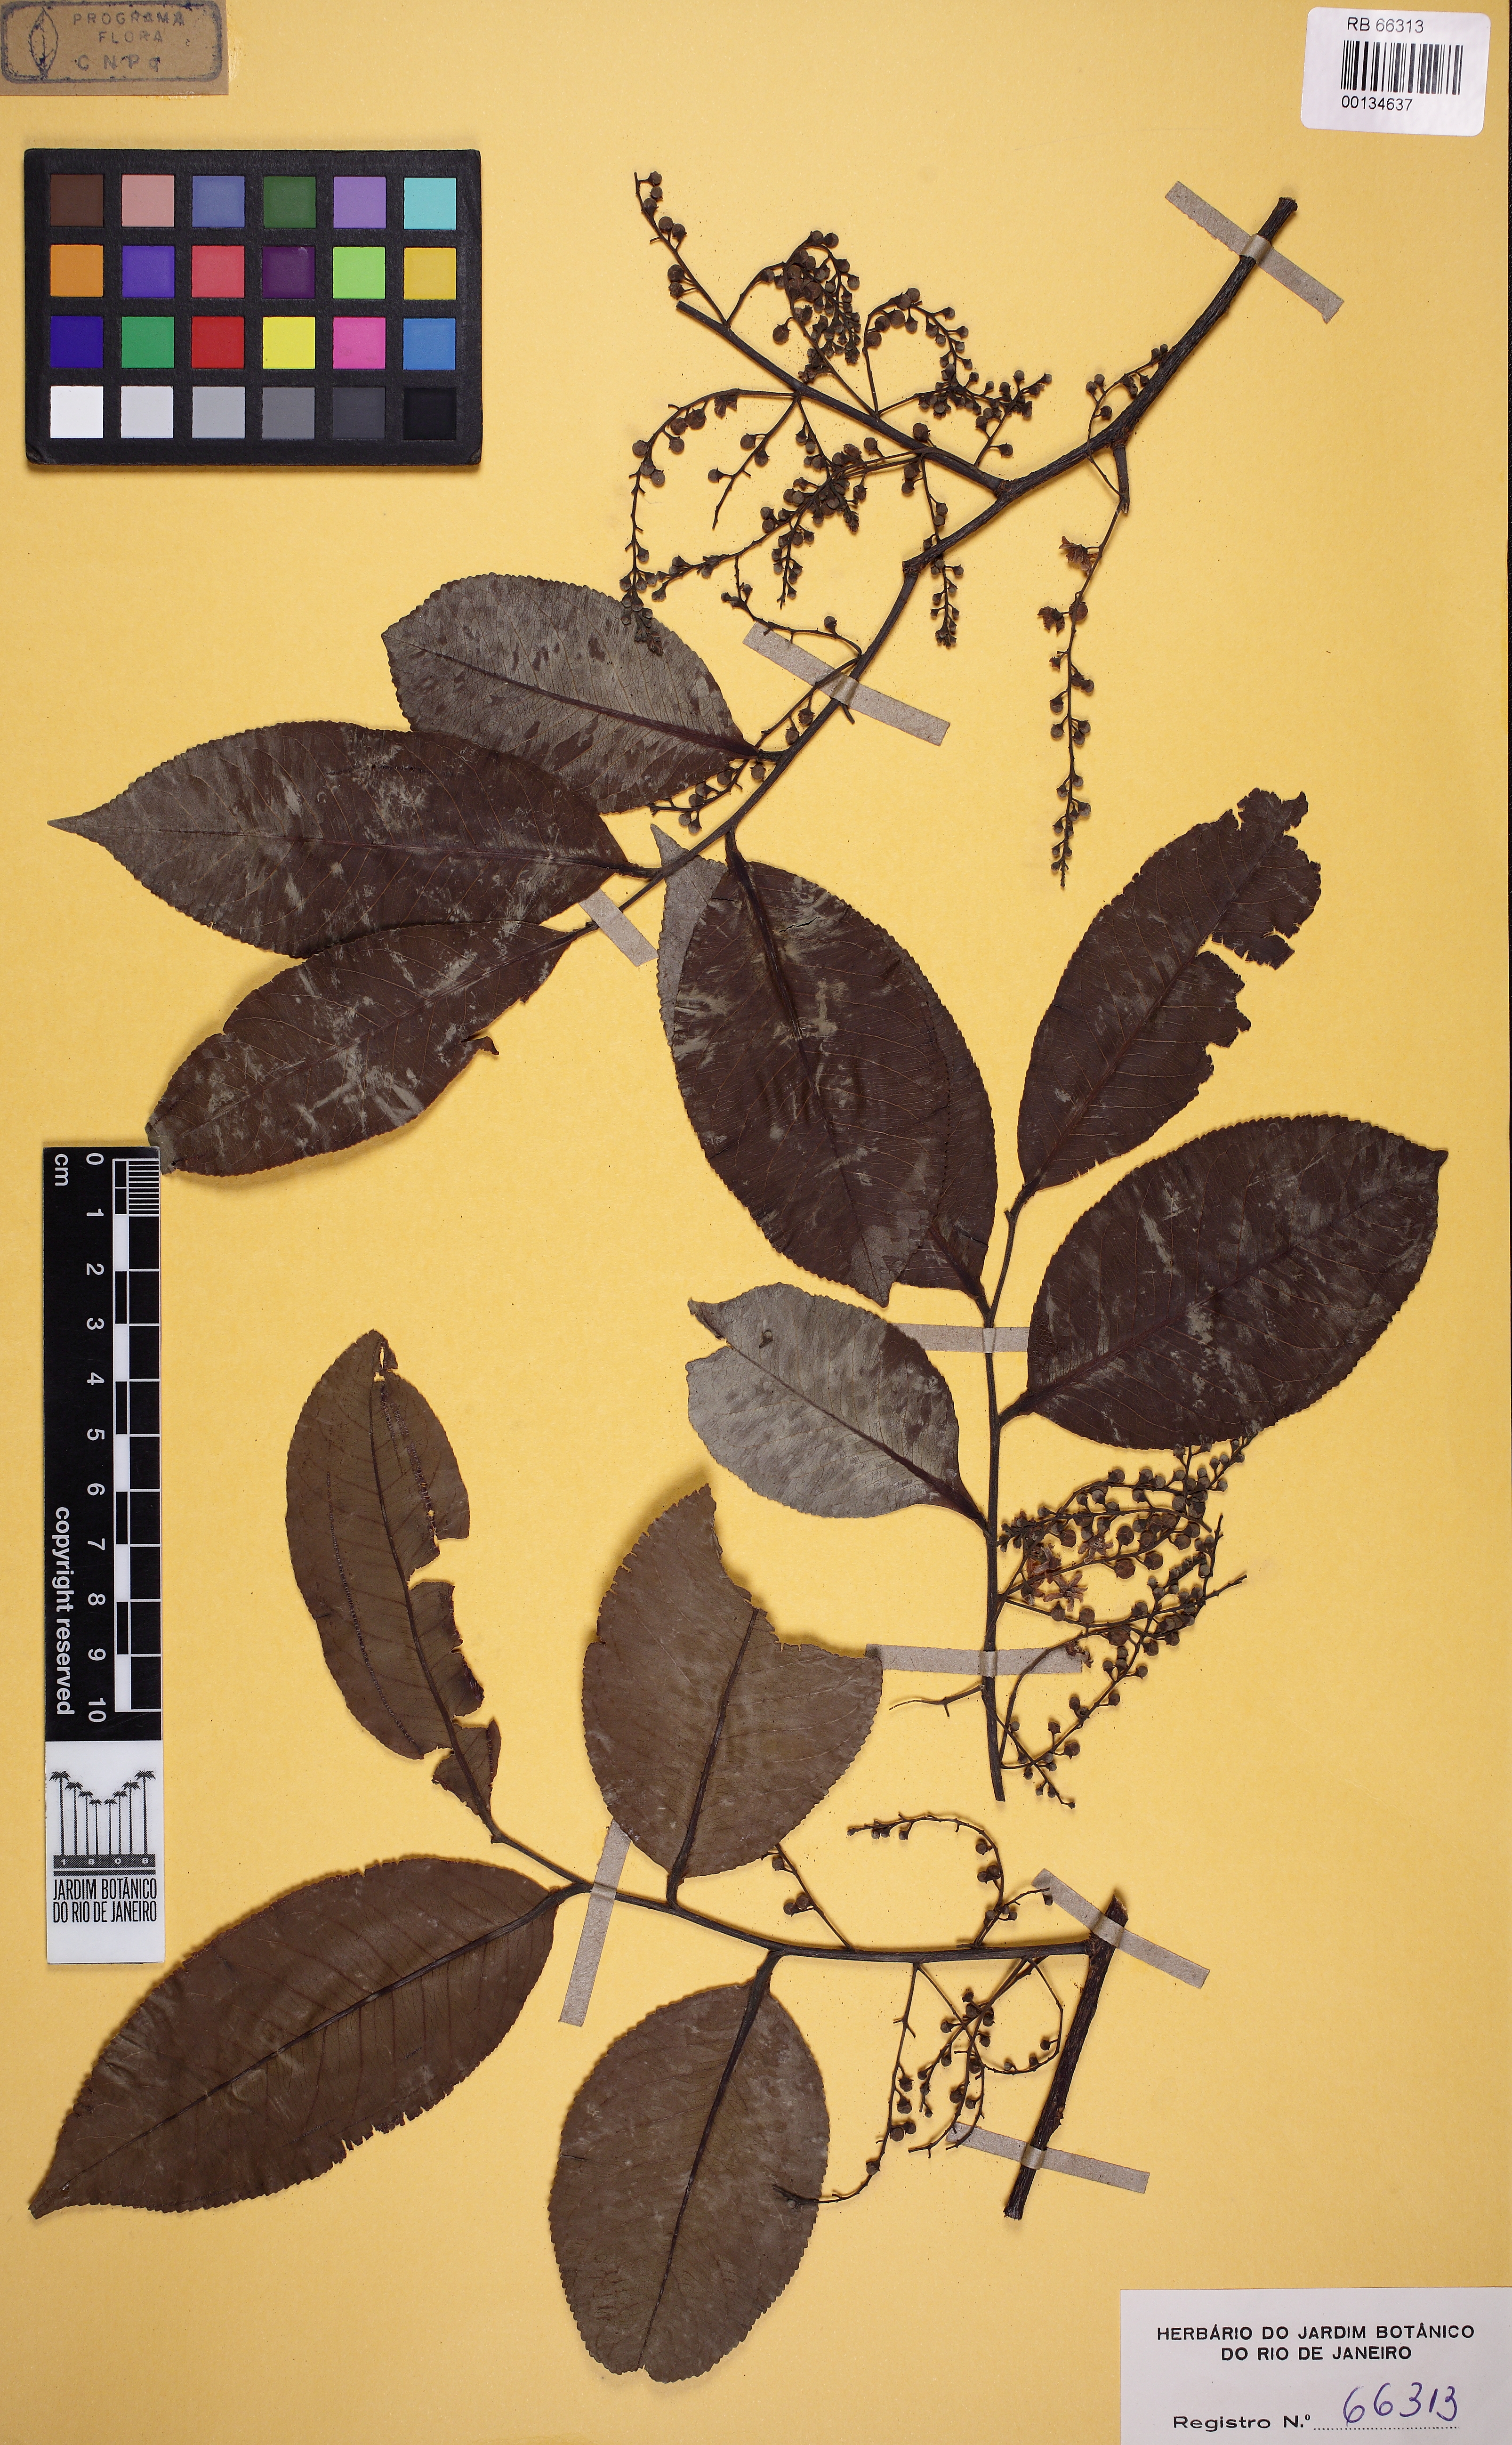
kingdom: Plantae
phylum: Tracheophyta
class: Magnoliopsida
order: Ericales
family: Lecythidaceae
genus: Cariniana
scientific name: Cariniana estrellensis
